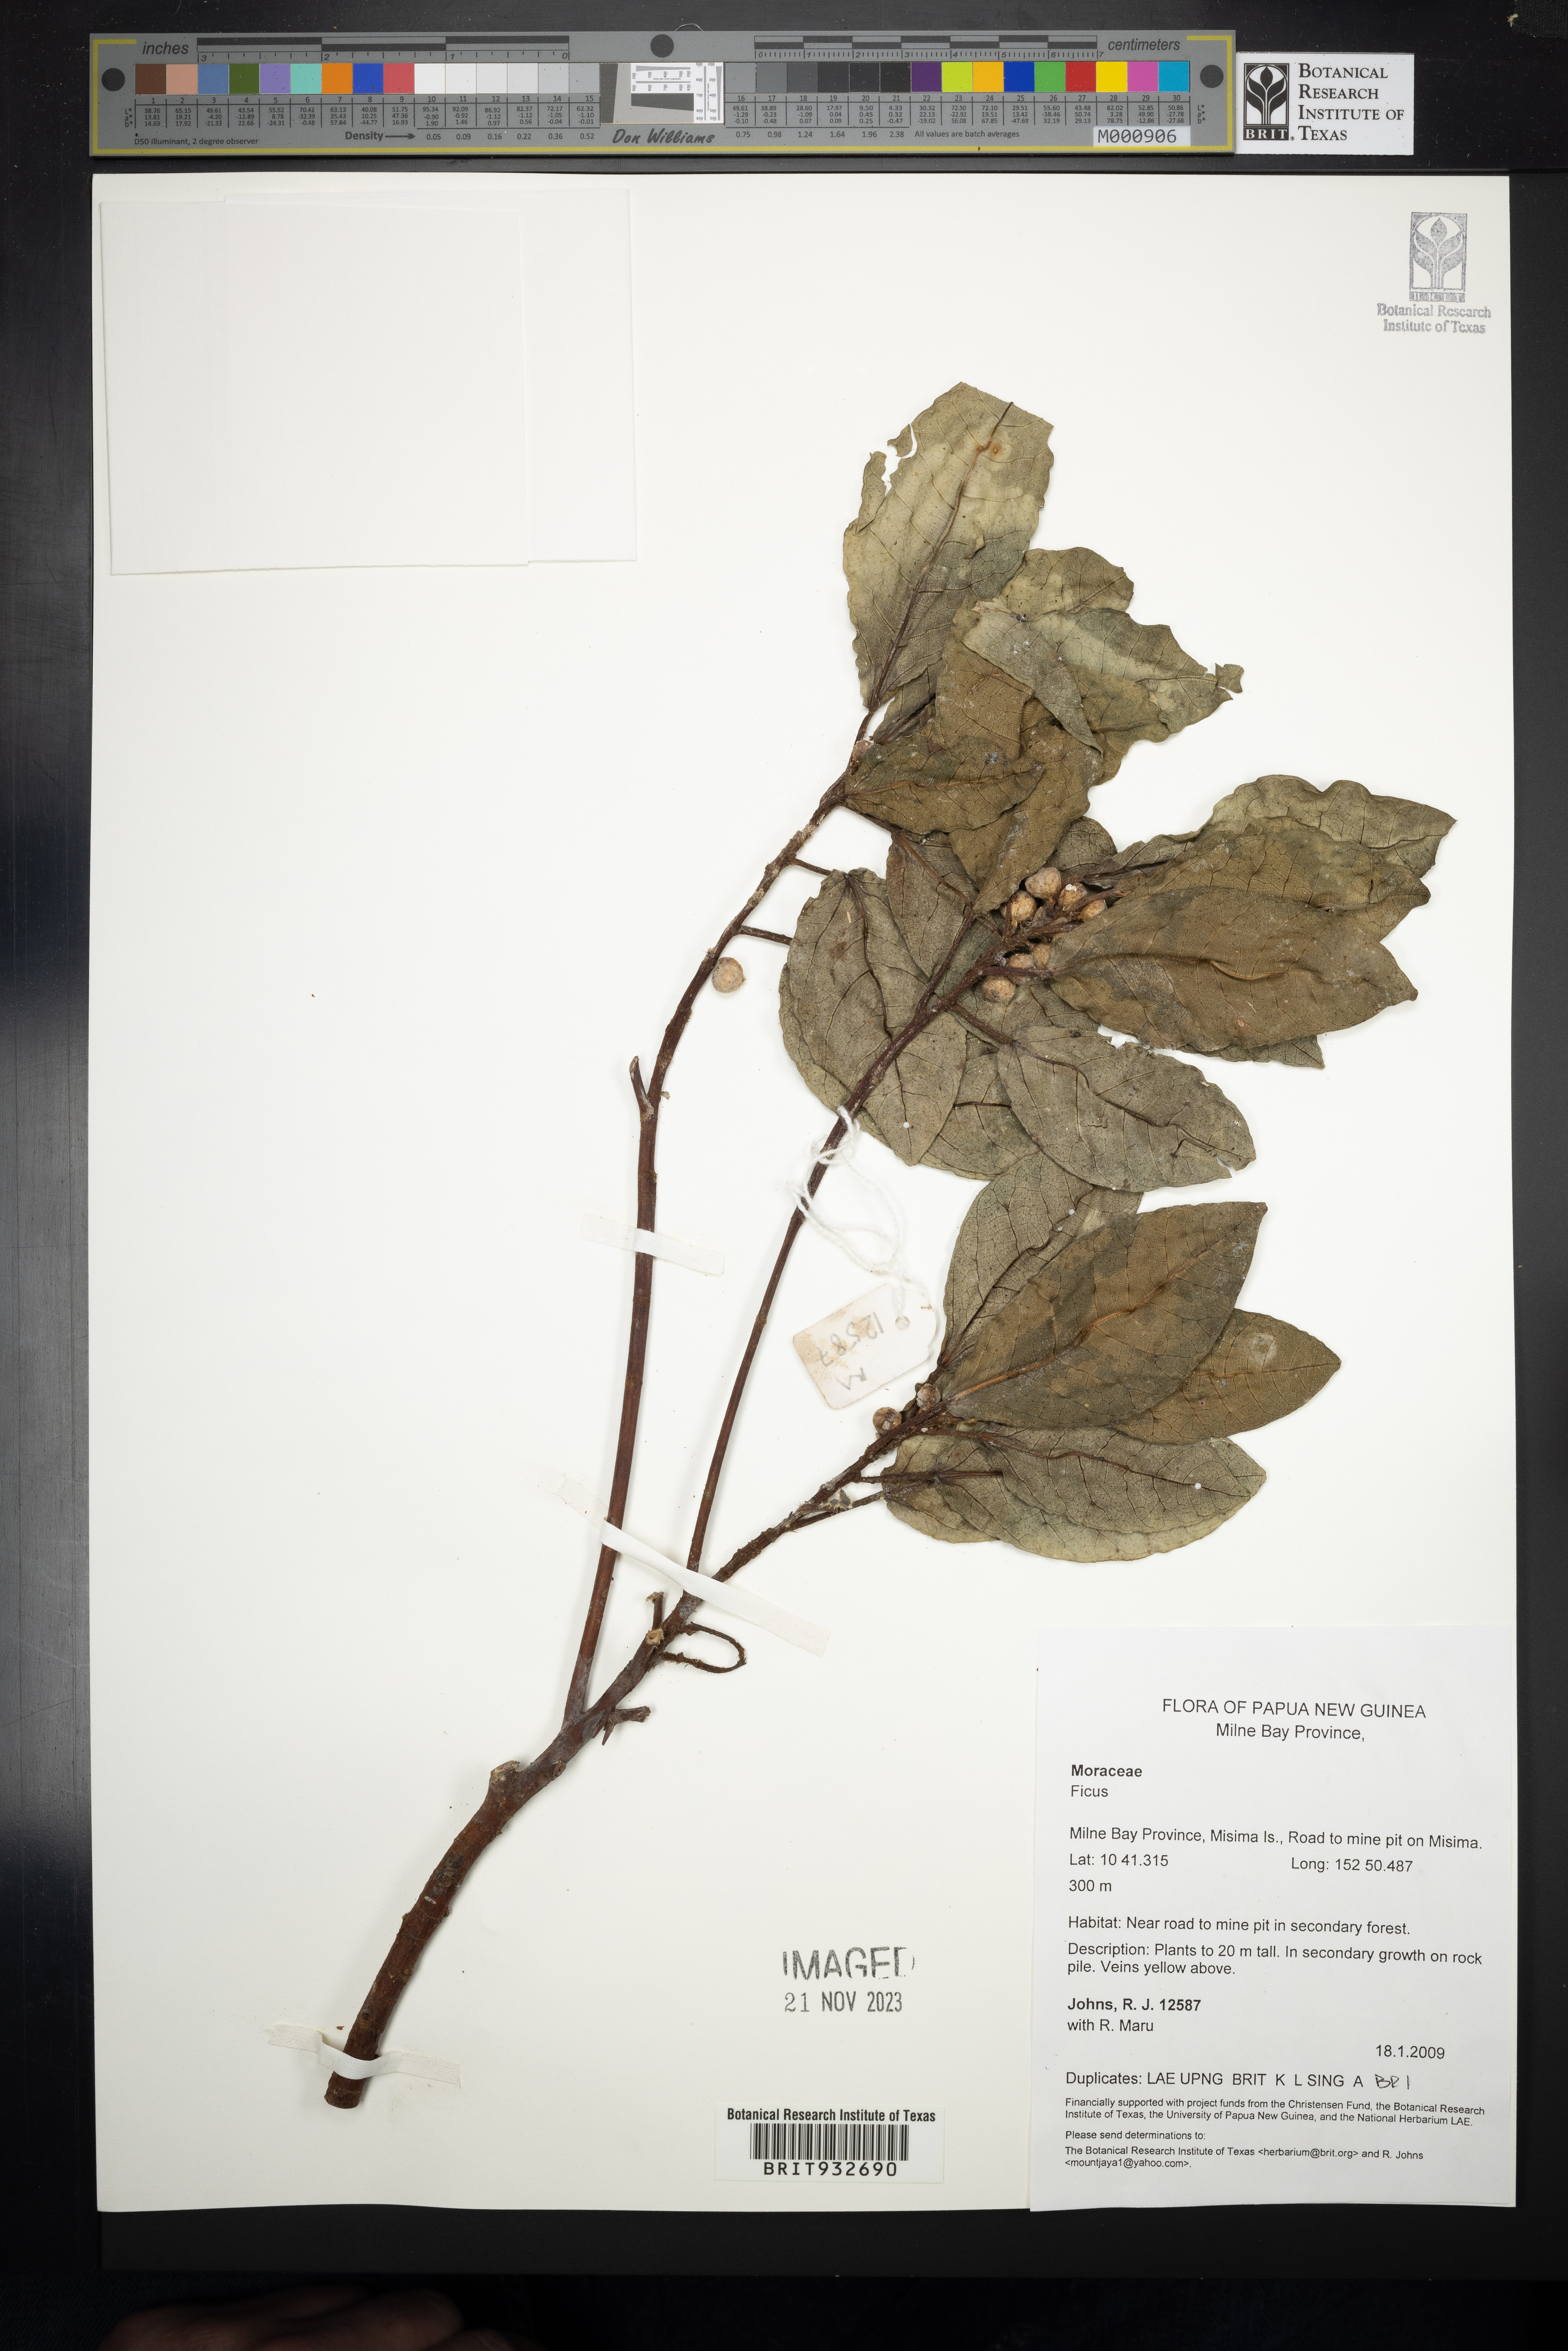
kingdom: Plantae
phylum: Tracheophyta
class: Magnoliopsida
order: Rosales
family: Moraceae
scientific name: Moraceae
